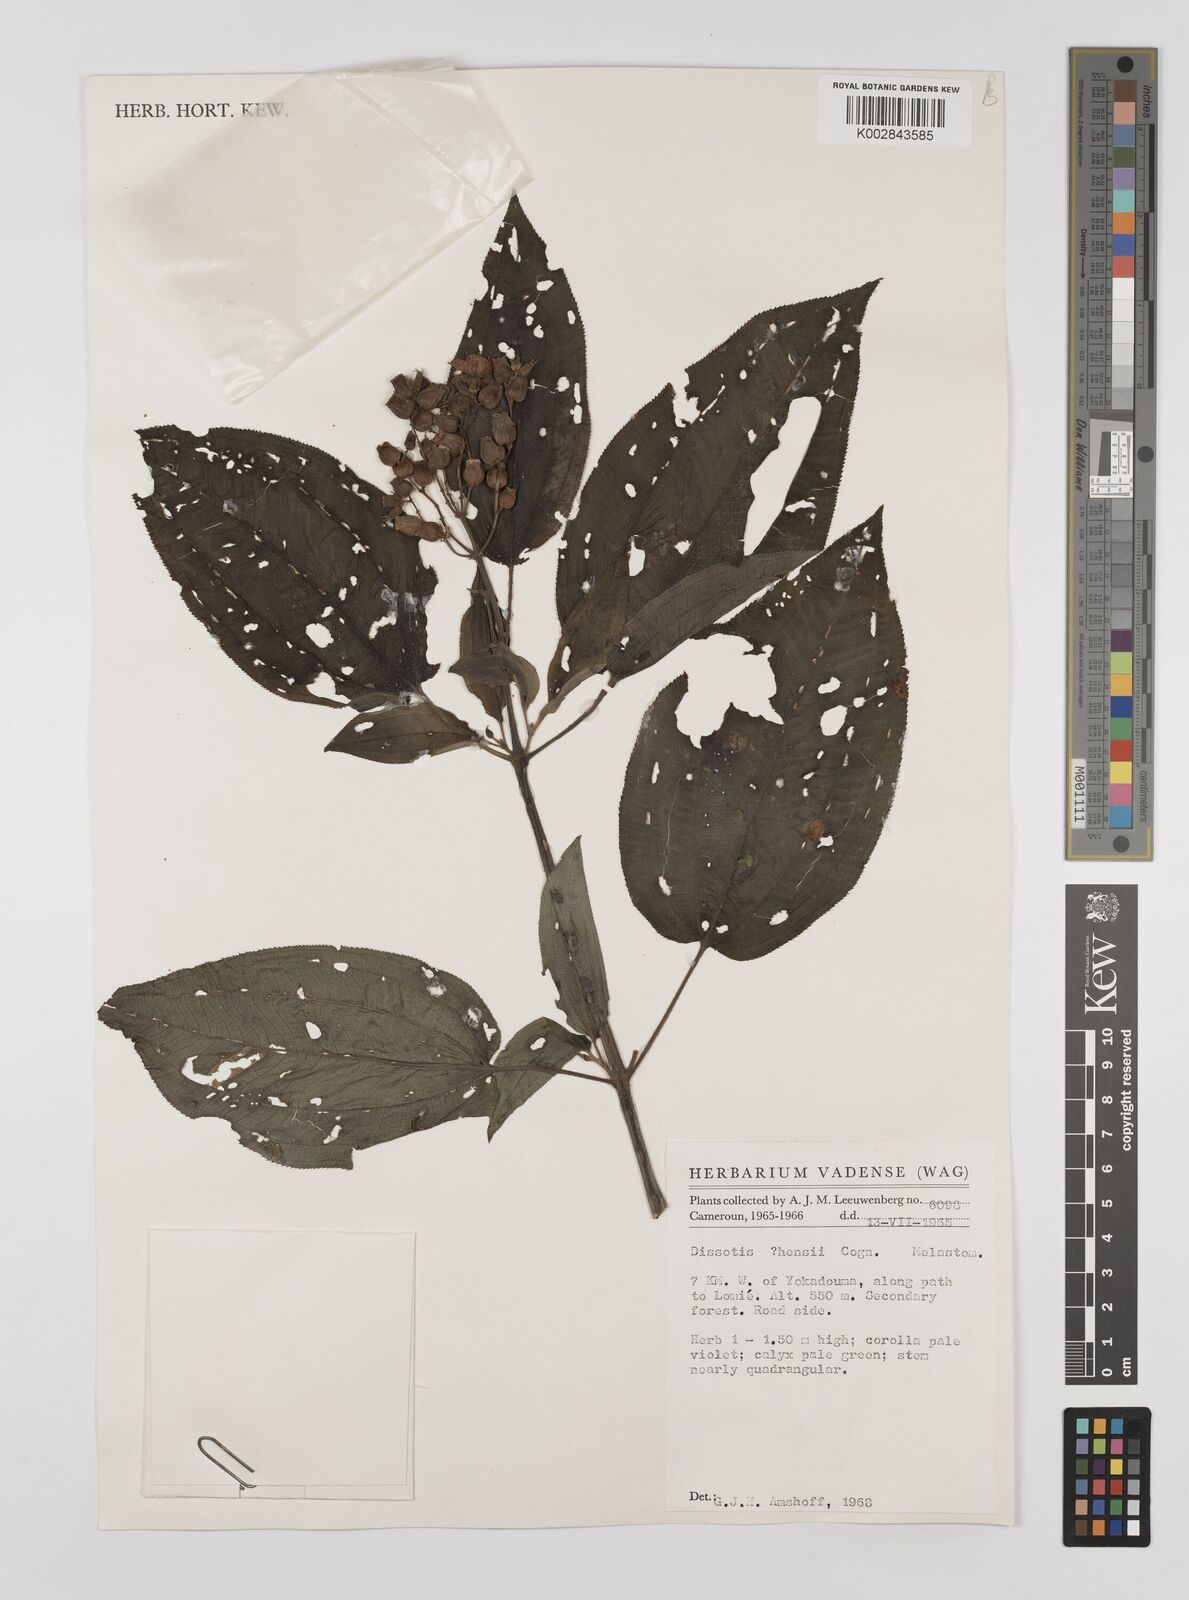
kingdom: Plantae
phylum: Tracheophyta
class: Magnoliopsida
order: Myrtales
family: Melastomataceae
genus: Dupineta
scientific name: Dupineta hensii
